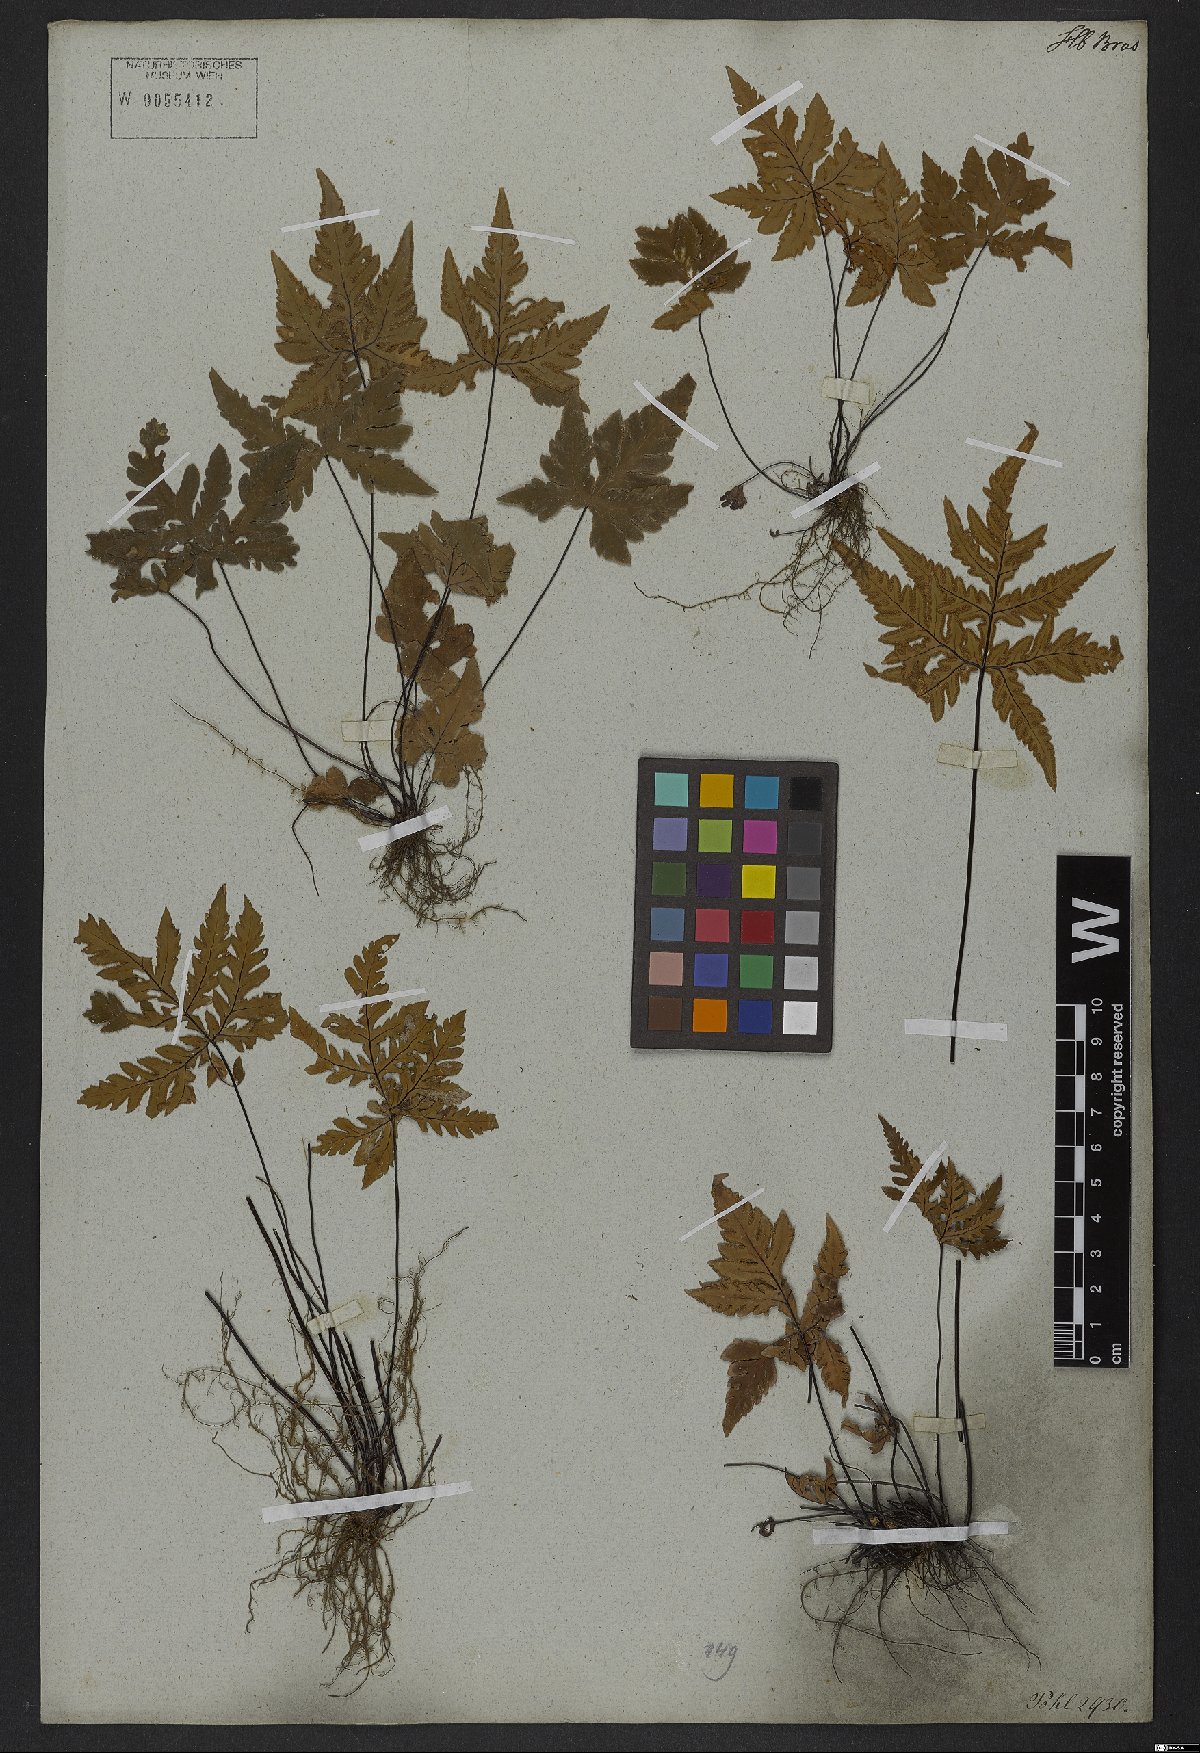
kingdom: Plantae
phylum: Tracheophyta
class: Polypodiopsida
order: Polypodiales
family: Pteridaceae
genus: Doryopteris
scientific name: Doryopteris concolor
